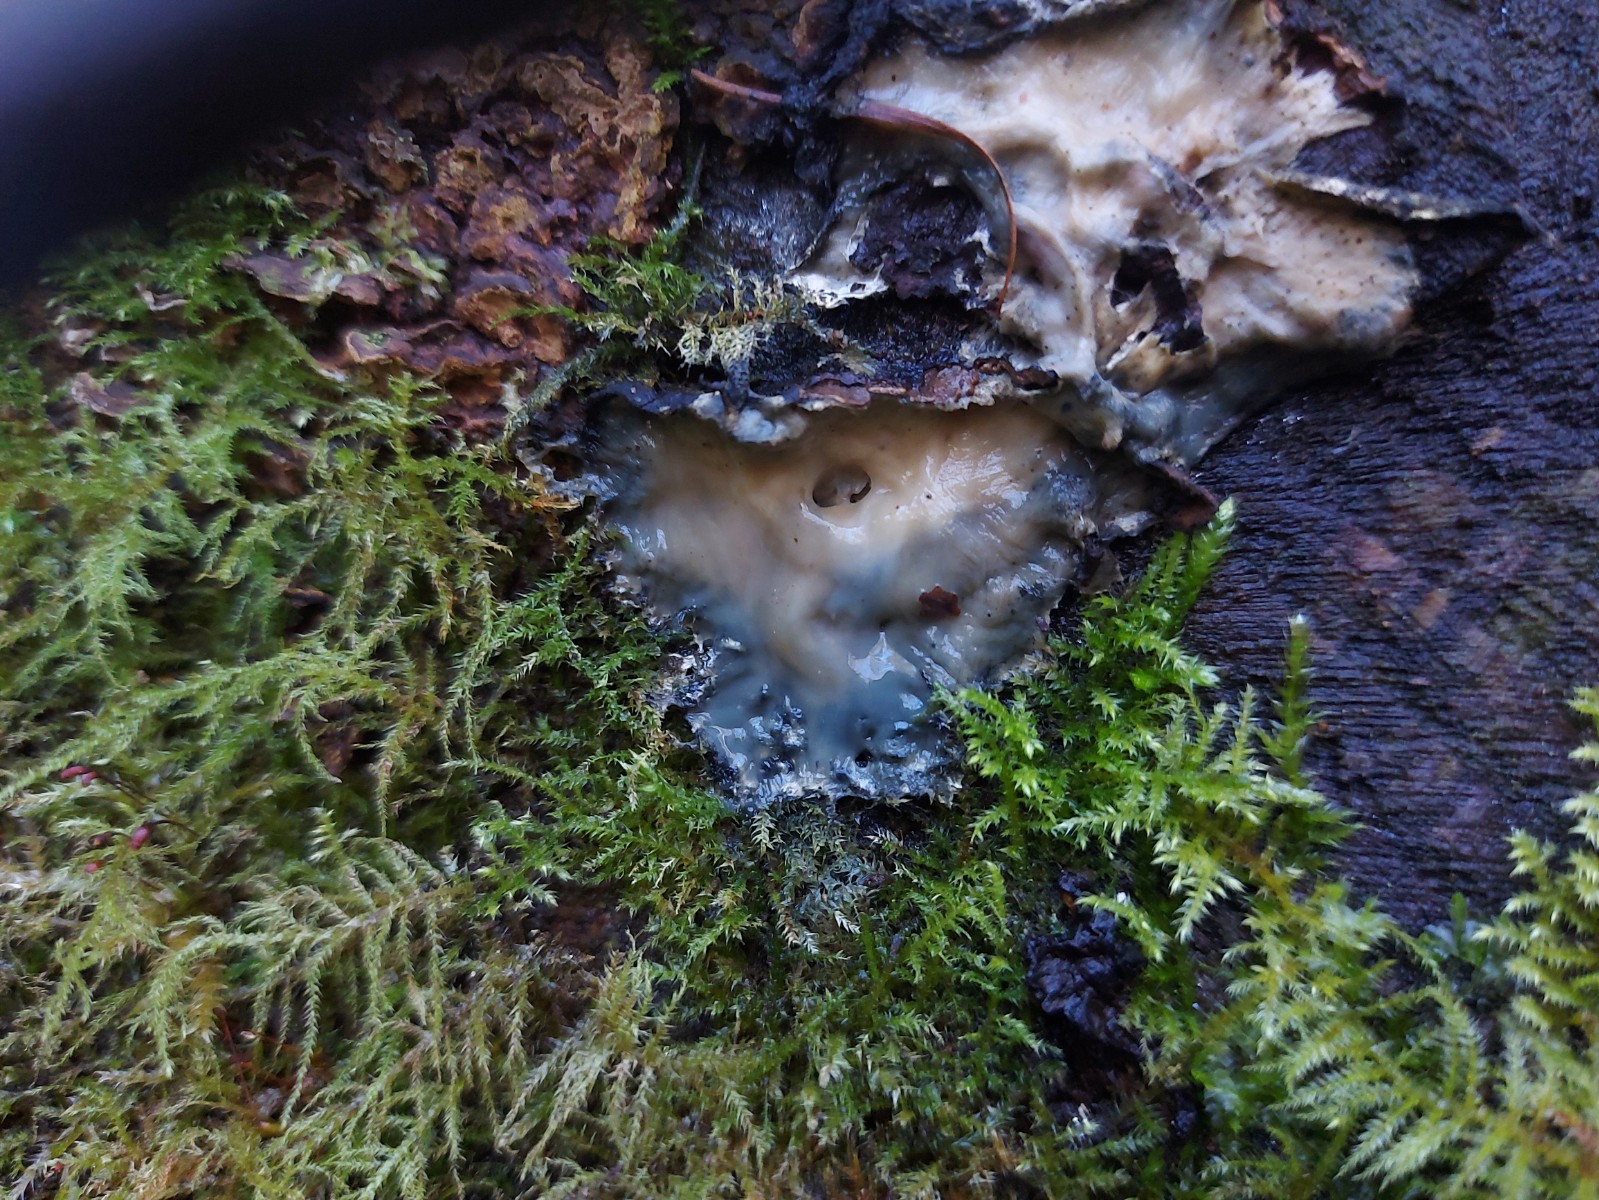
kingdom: Fungi
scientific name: Fungi
